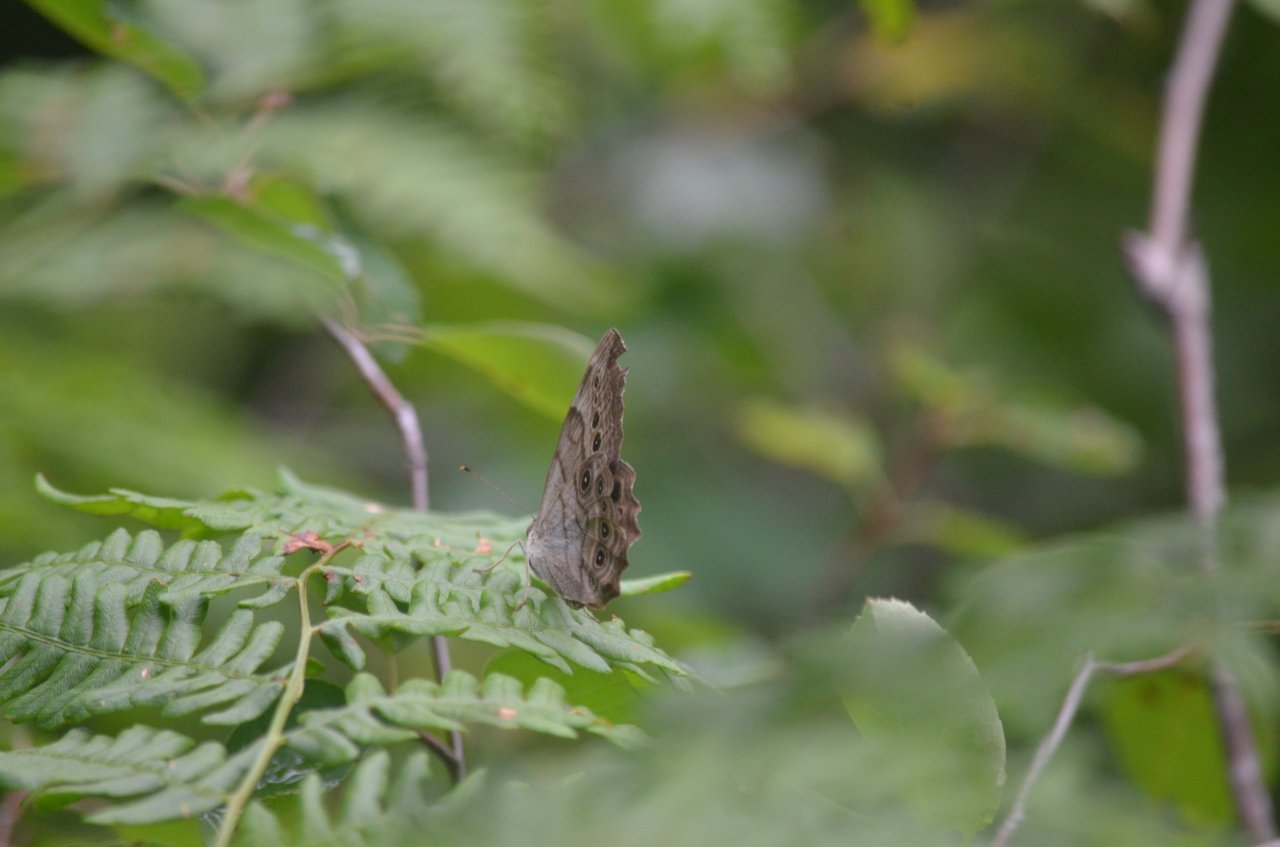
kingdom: Animalia
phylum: Arthropoda
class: Insecta
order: Lepidoptera
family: Nymphalidae
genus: Lethe
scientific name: Lethe anthedon
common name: Northern Pearly-Eye
